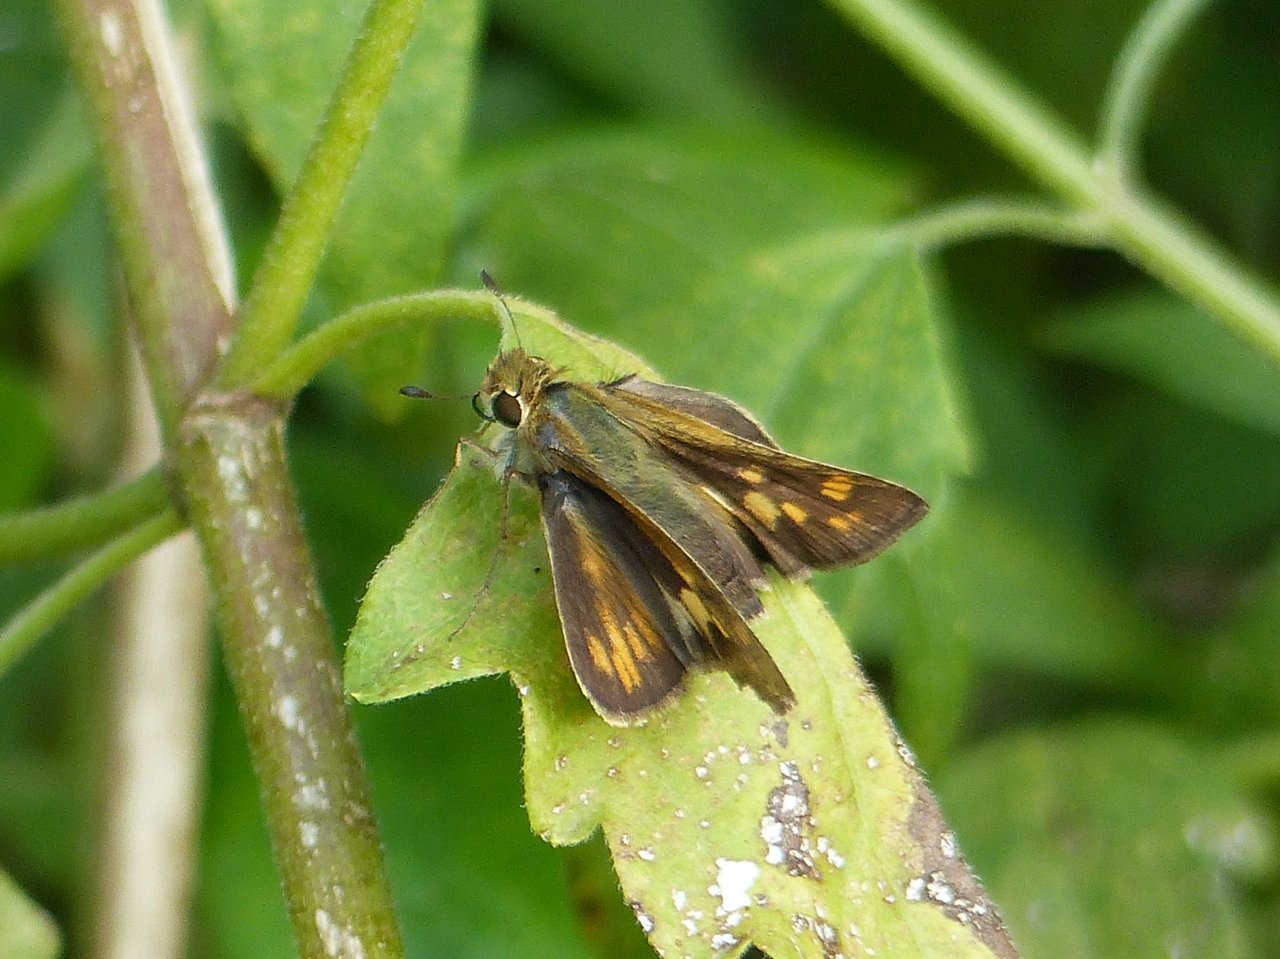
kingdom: Animalia
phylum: Arthropoda
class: Insecta
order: Lepidoptera
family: Hesperiidae
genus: Atalopedes
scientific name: Atalopedes campestris
